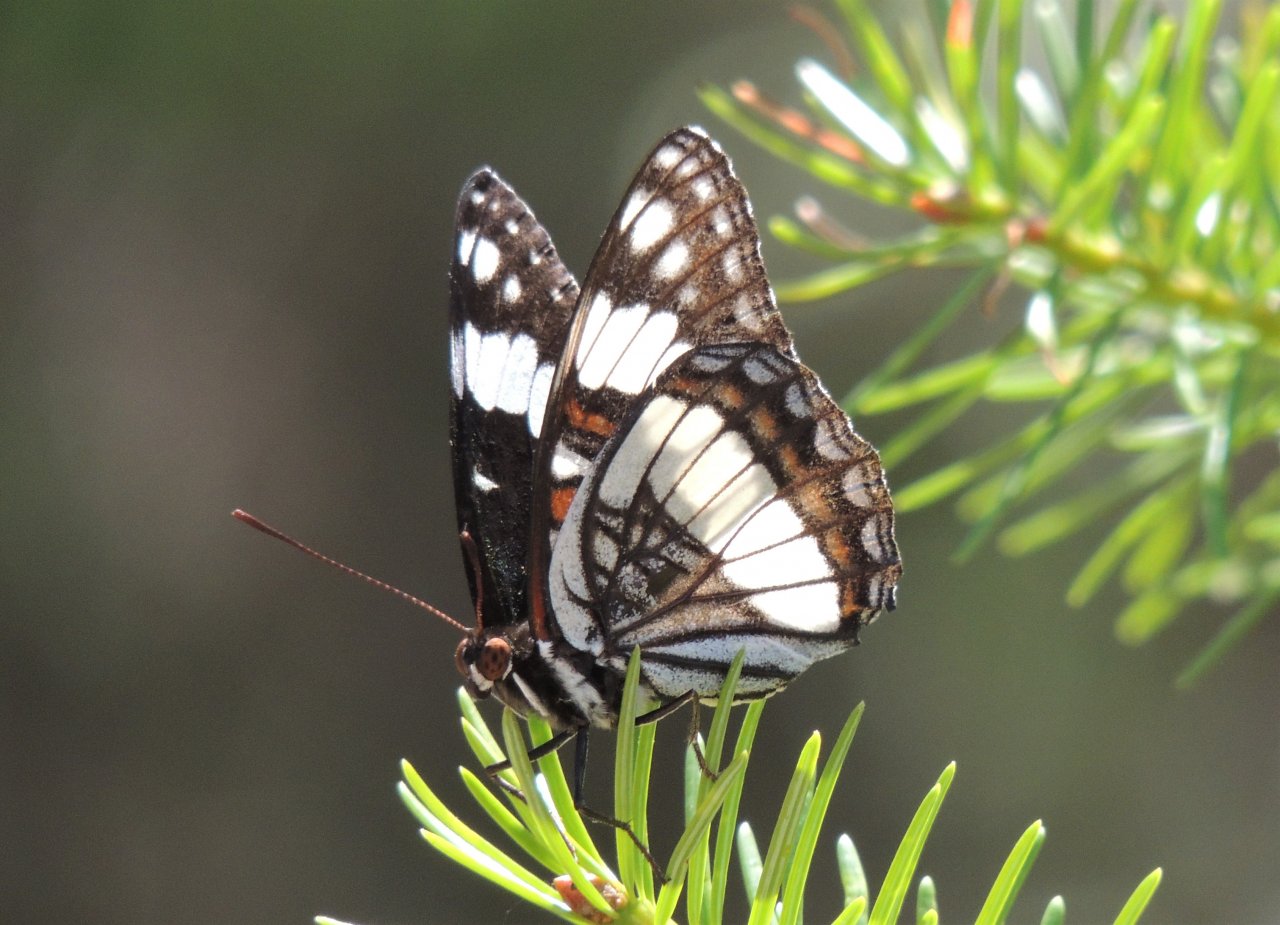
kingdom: Animalia
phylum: Arthropoda
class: Insecta
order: Lepidoptera
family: Nymphalidae
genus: Limenitis
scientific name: Limenitis weidemeyerii
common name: Weidemeyer's Admiral
